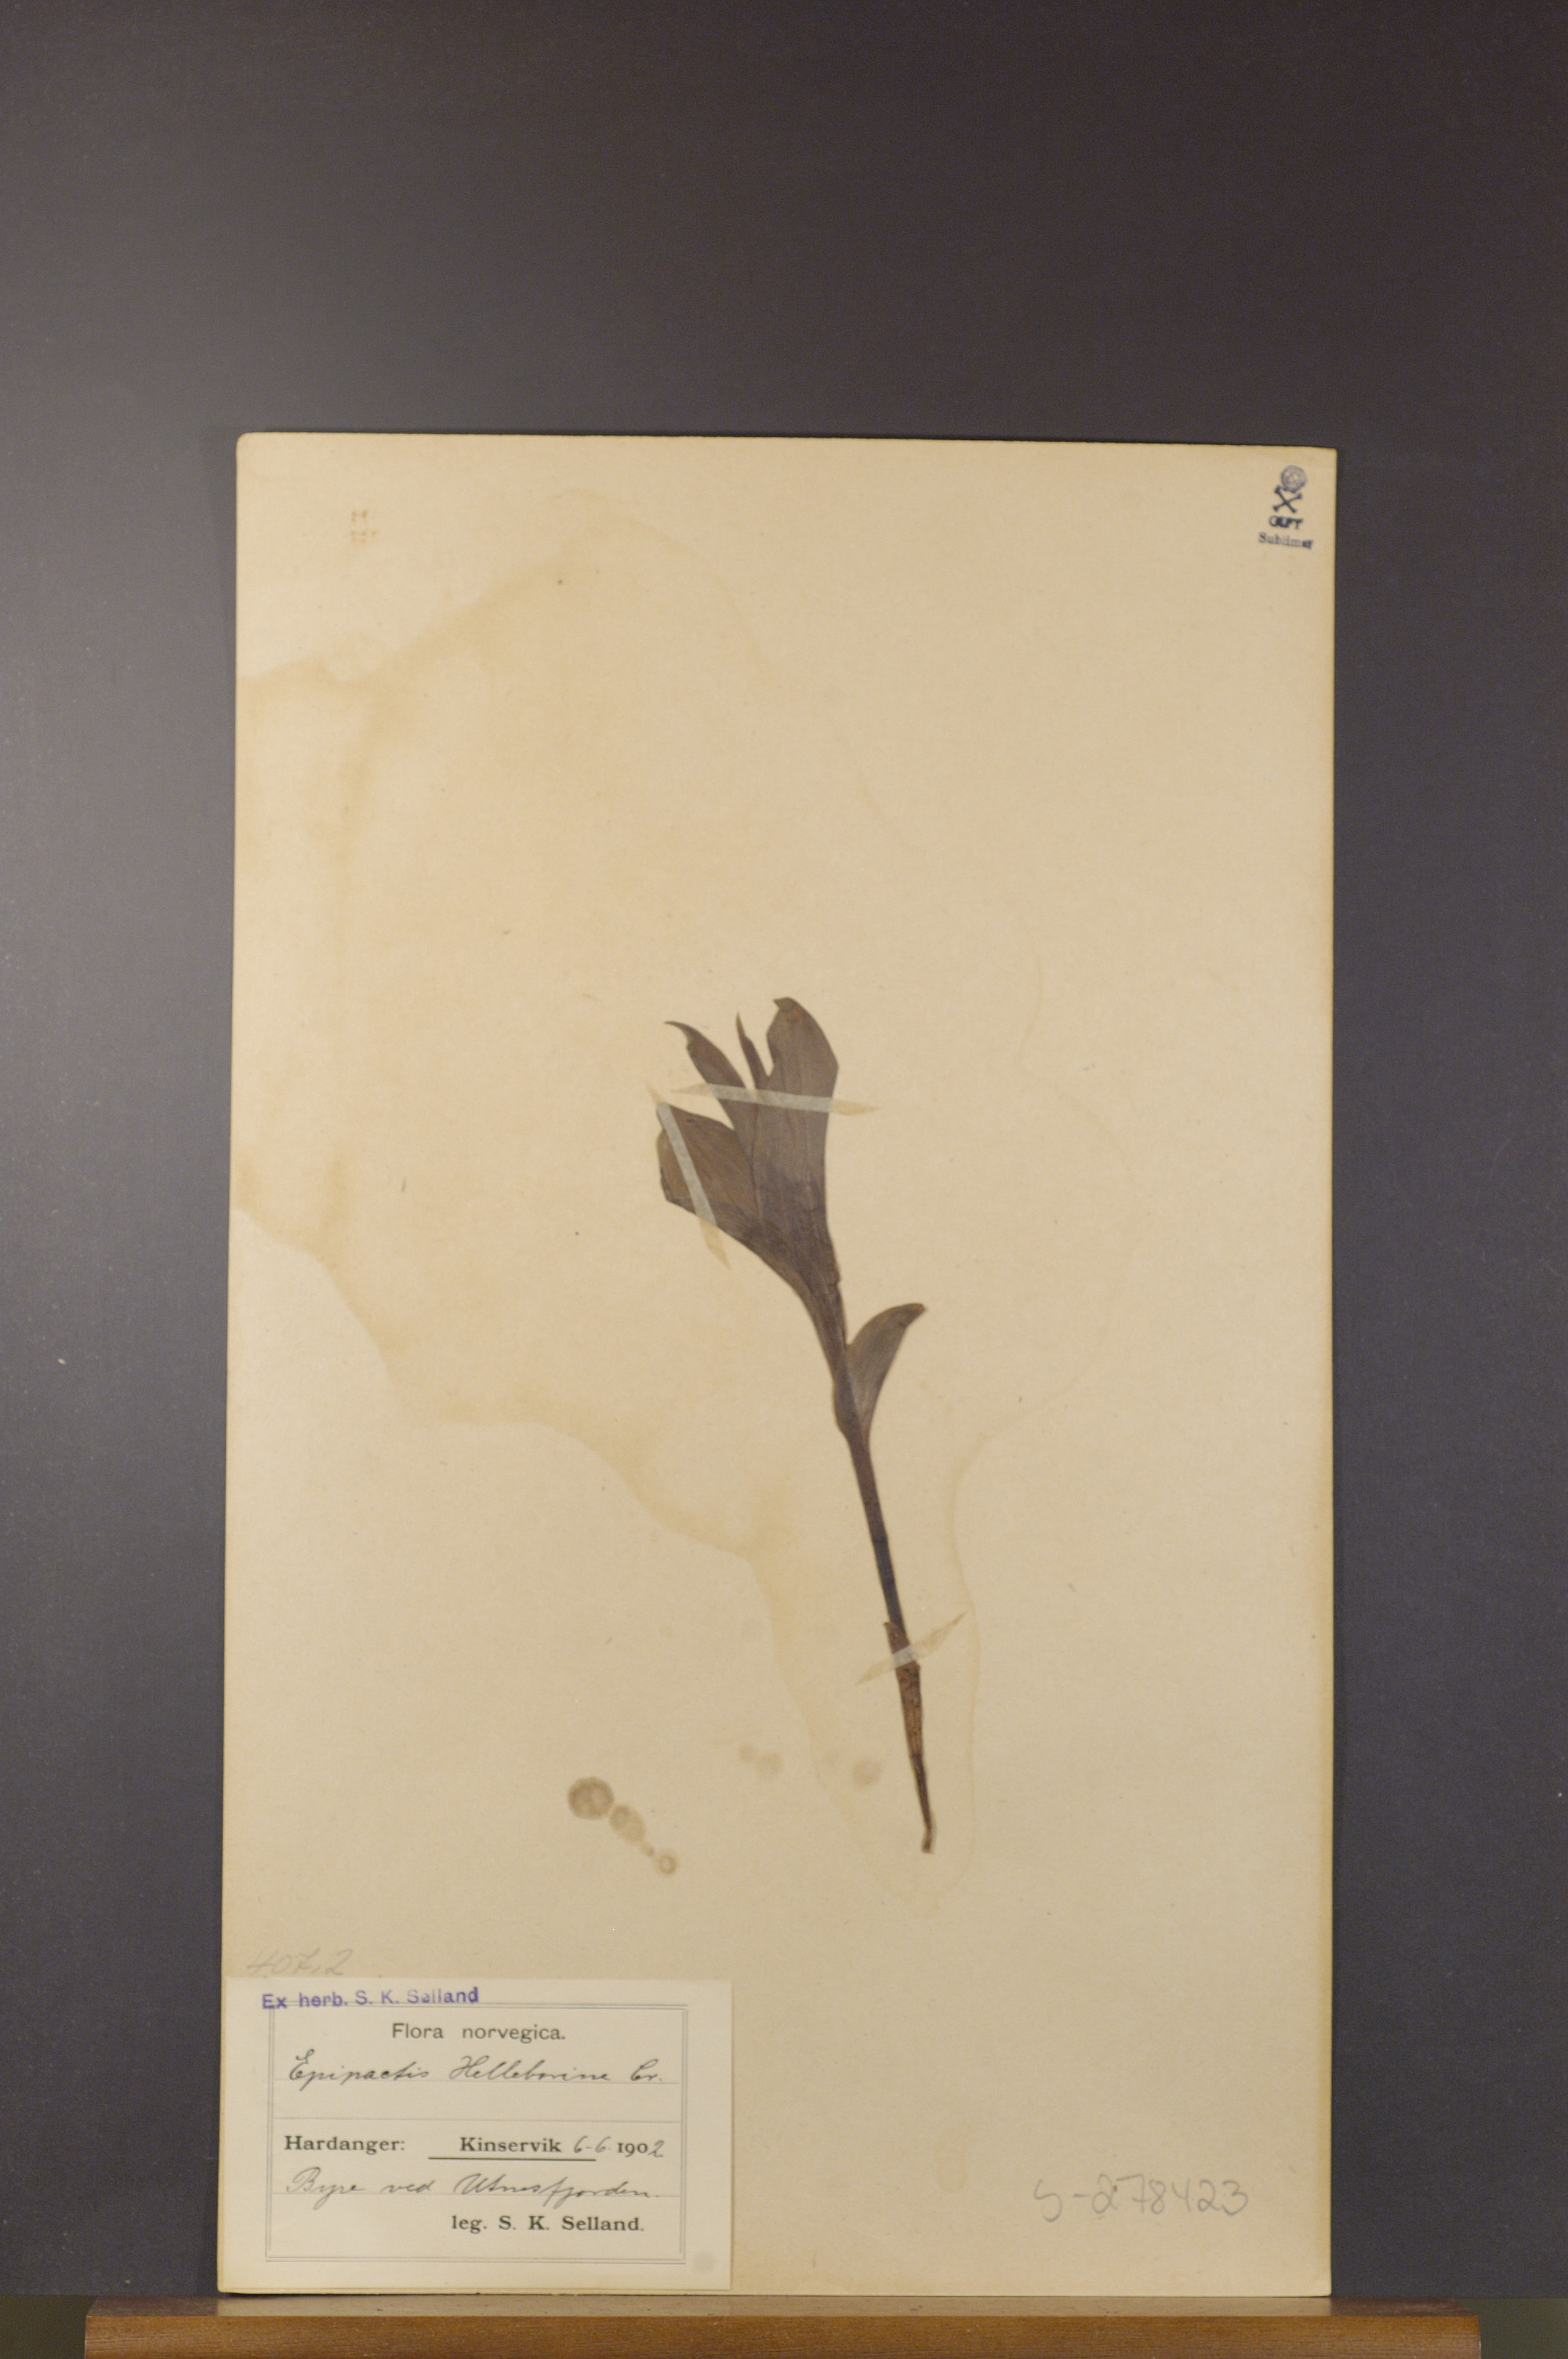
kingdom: Plantae
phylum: Tracheophyta
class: Liliopsida
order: Asparagales
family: Orchidaceae
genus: Epipactis
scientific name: Epipactis helleborine
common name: Broad-leaved helleborine
